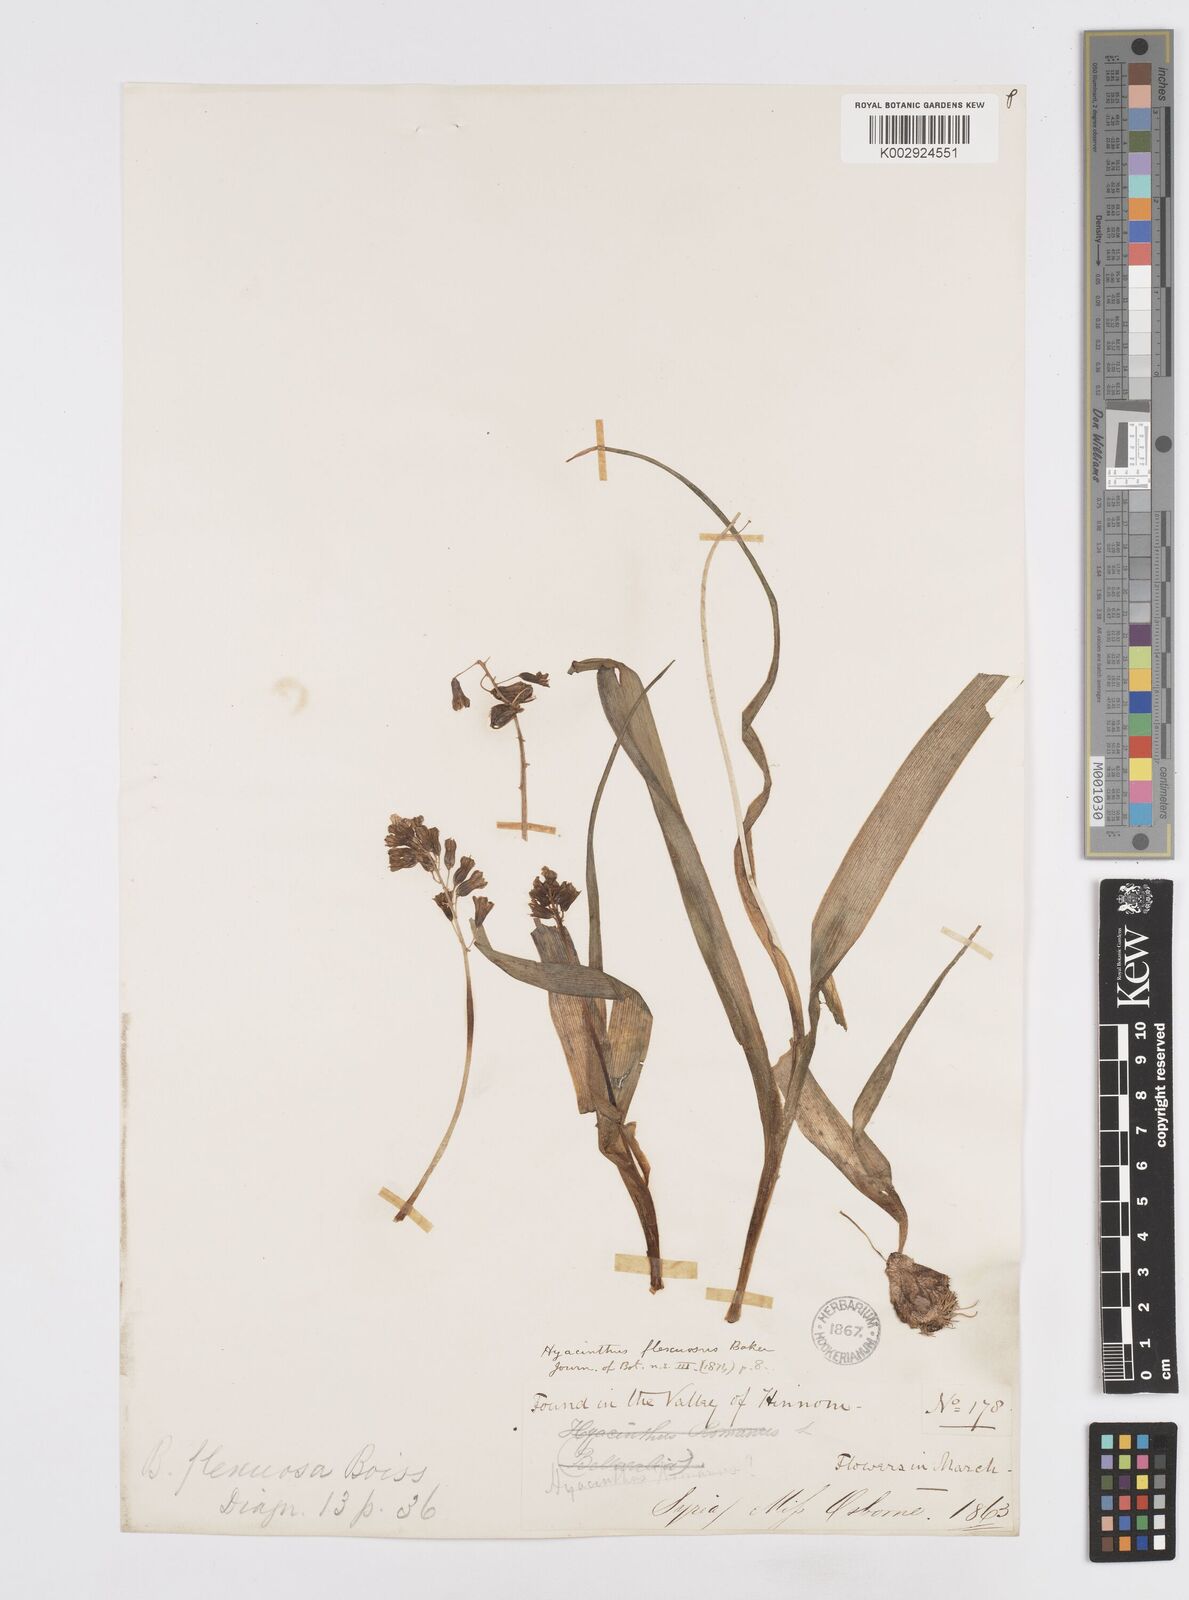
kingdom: Plantae
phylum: Tracheophyta
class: Liliopsida
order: Asparagales
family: Asparagaceae
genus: Bellevalia
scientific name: Bellevalia flexuosa
